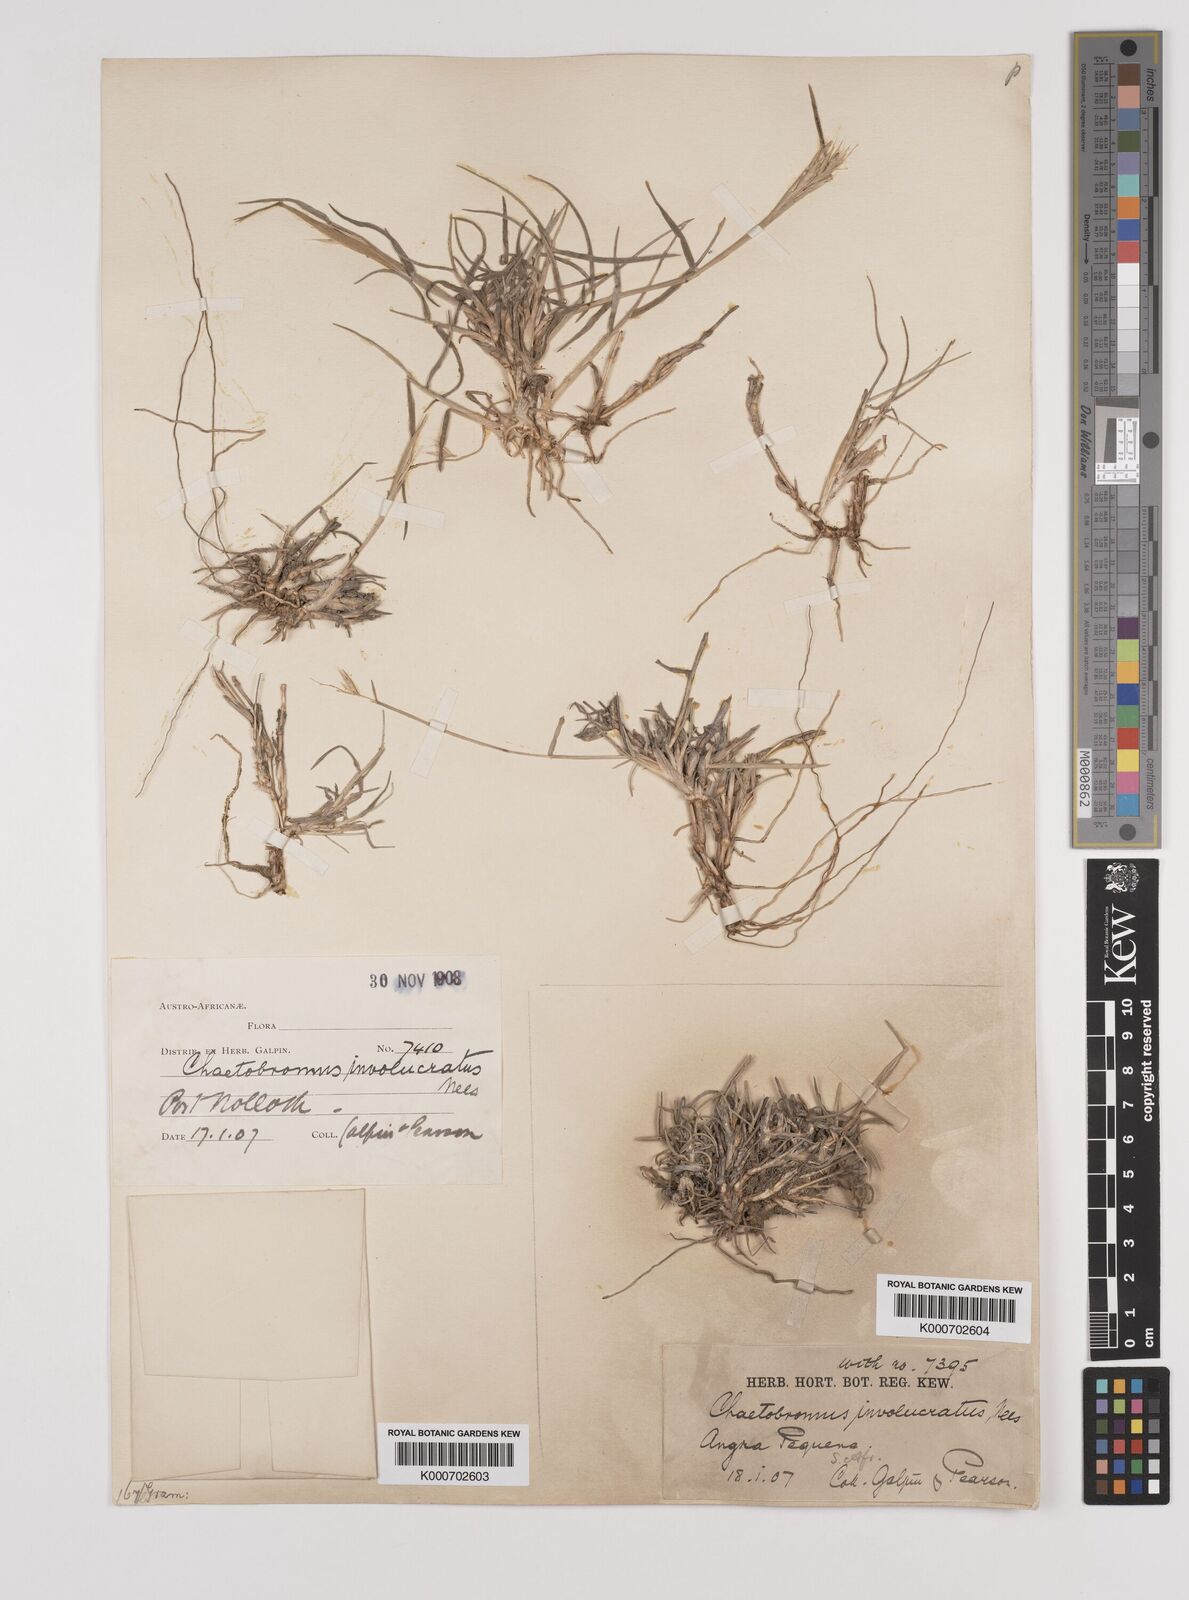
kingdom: Plantae
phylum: Tracheophyta
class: Liliopsida
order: Poales
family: Poaceae
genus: Chaetobromus
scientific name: Chaetobromus involucratus
